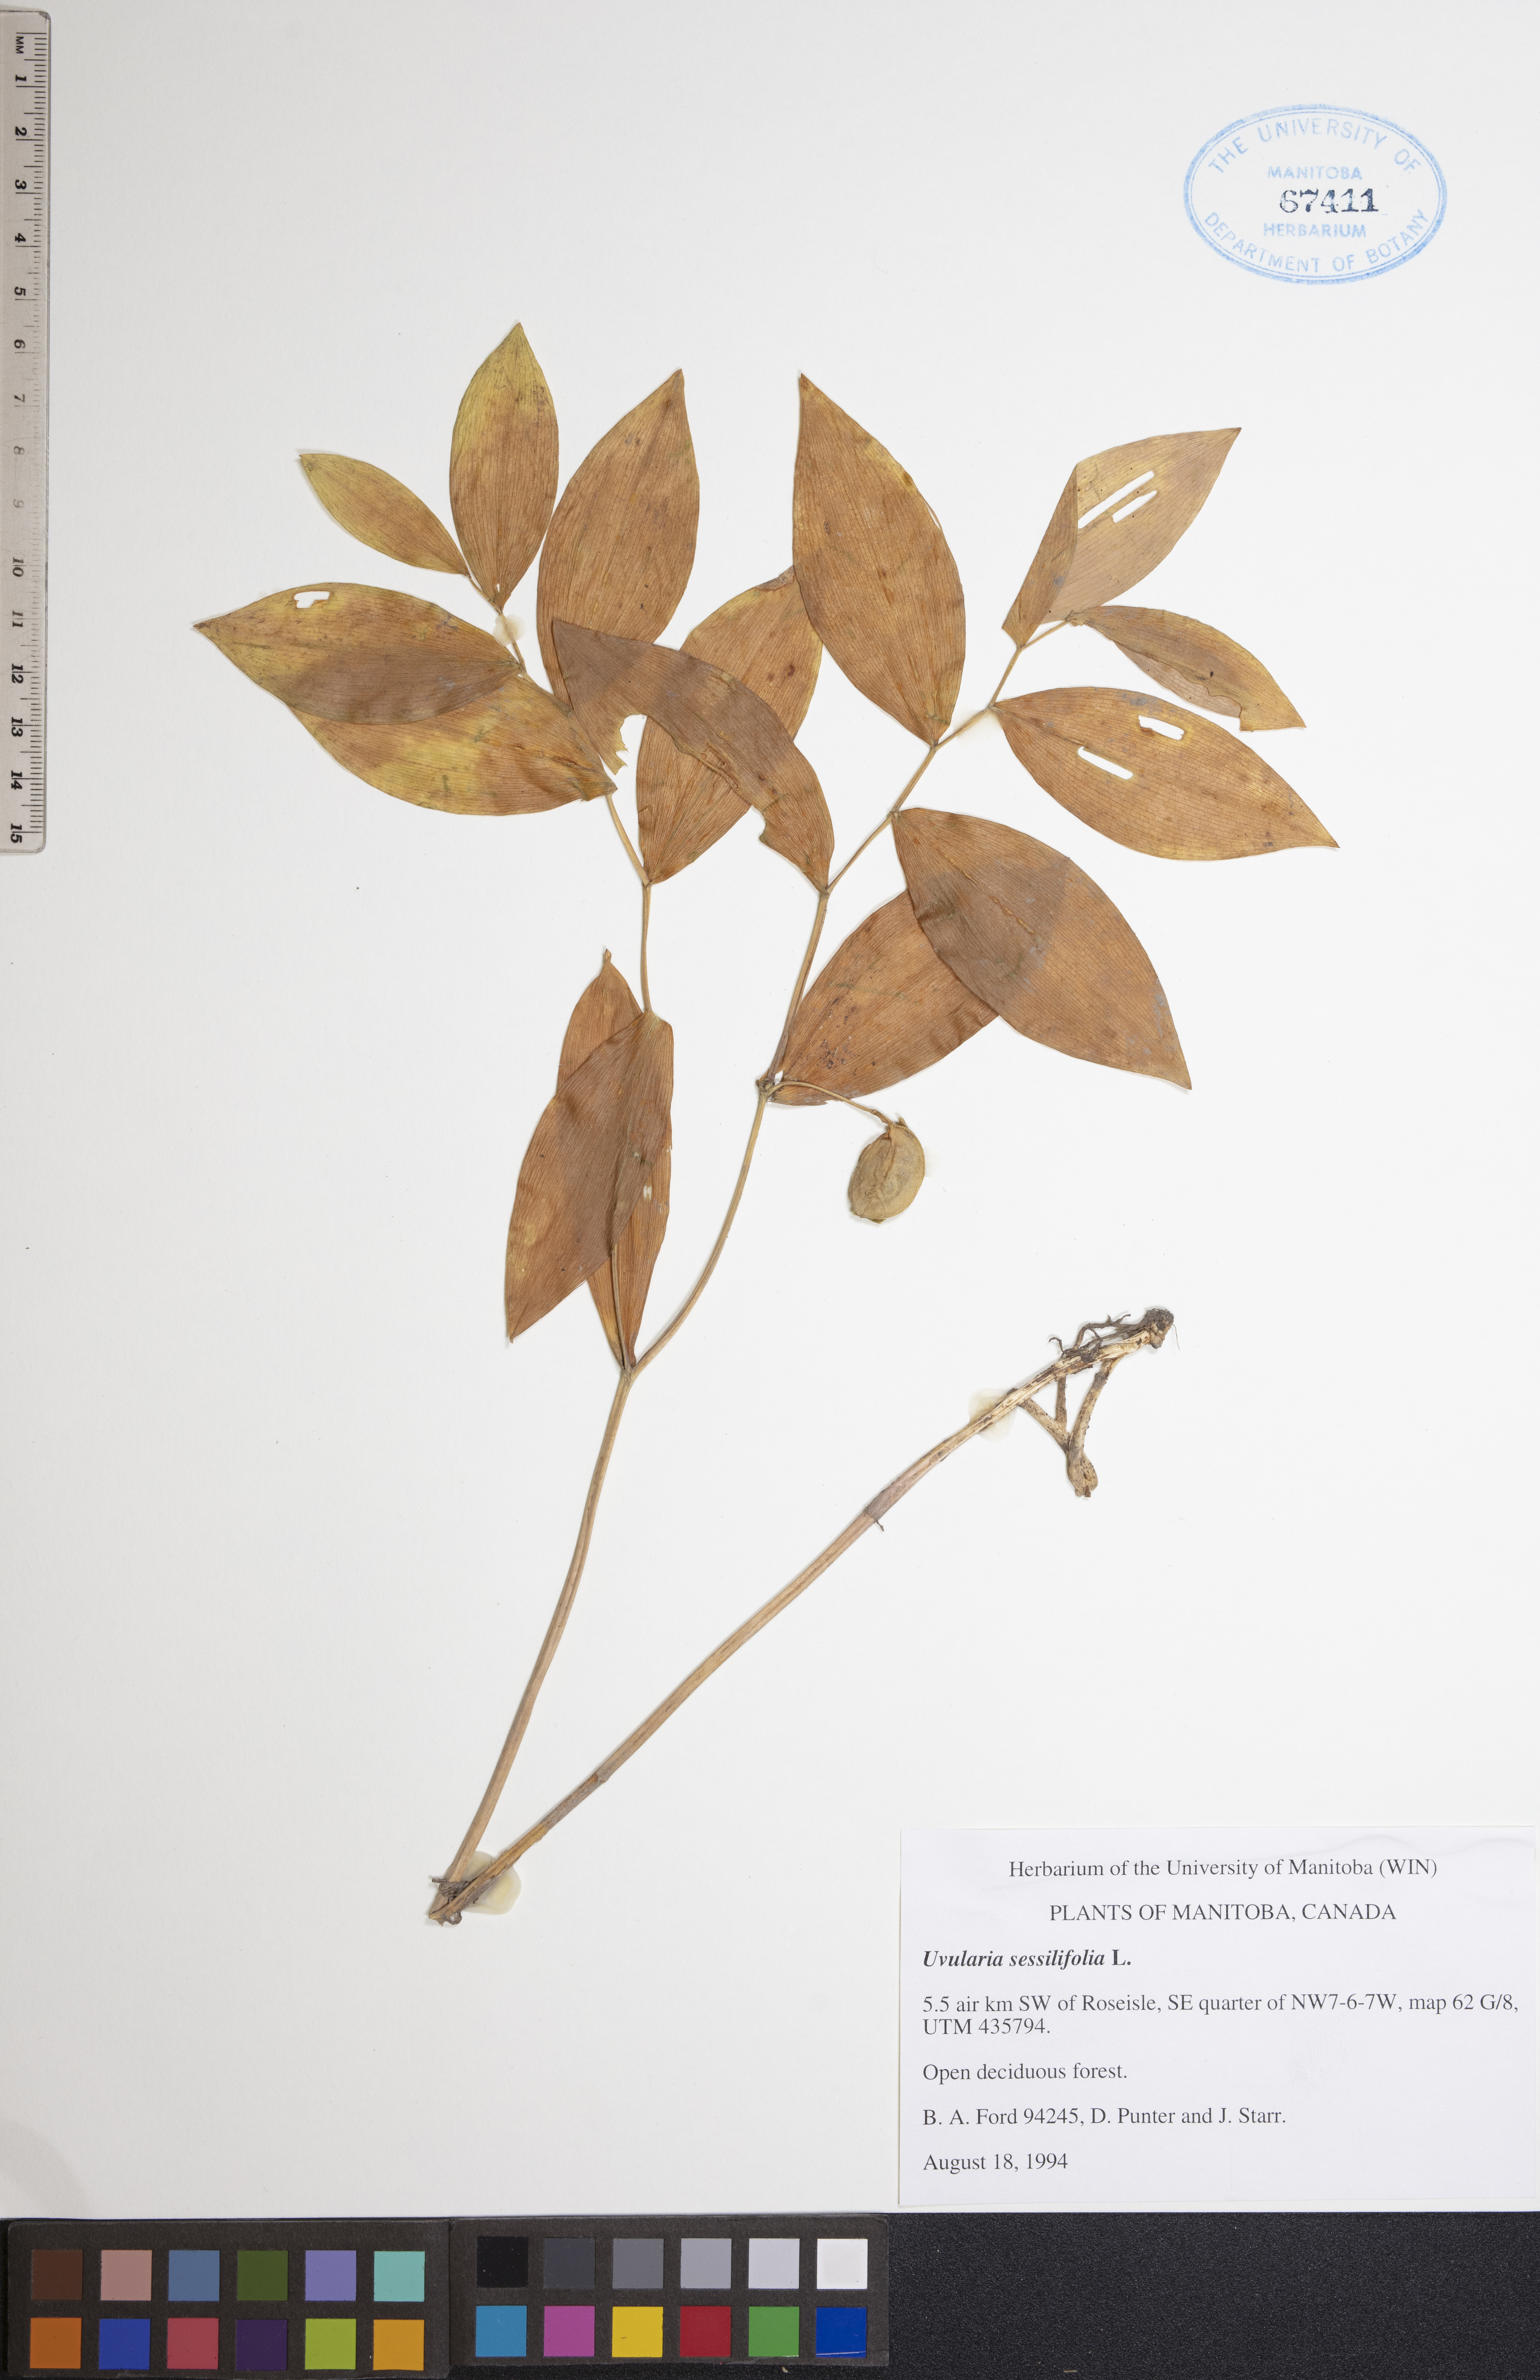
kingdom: Plantae
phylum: Tracheophyta
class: Liliopsida
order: Liliales
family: Colchicaceae
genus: Uvularia
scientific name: Uvularia sessilifolia
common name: Straw-lily
